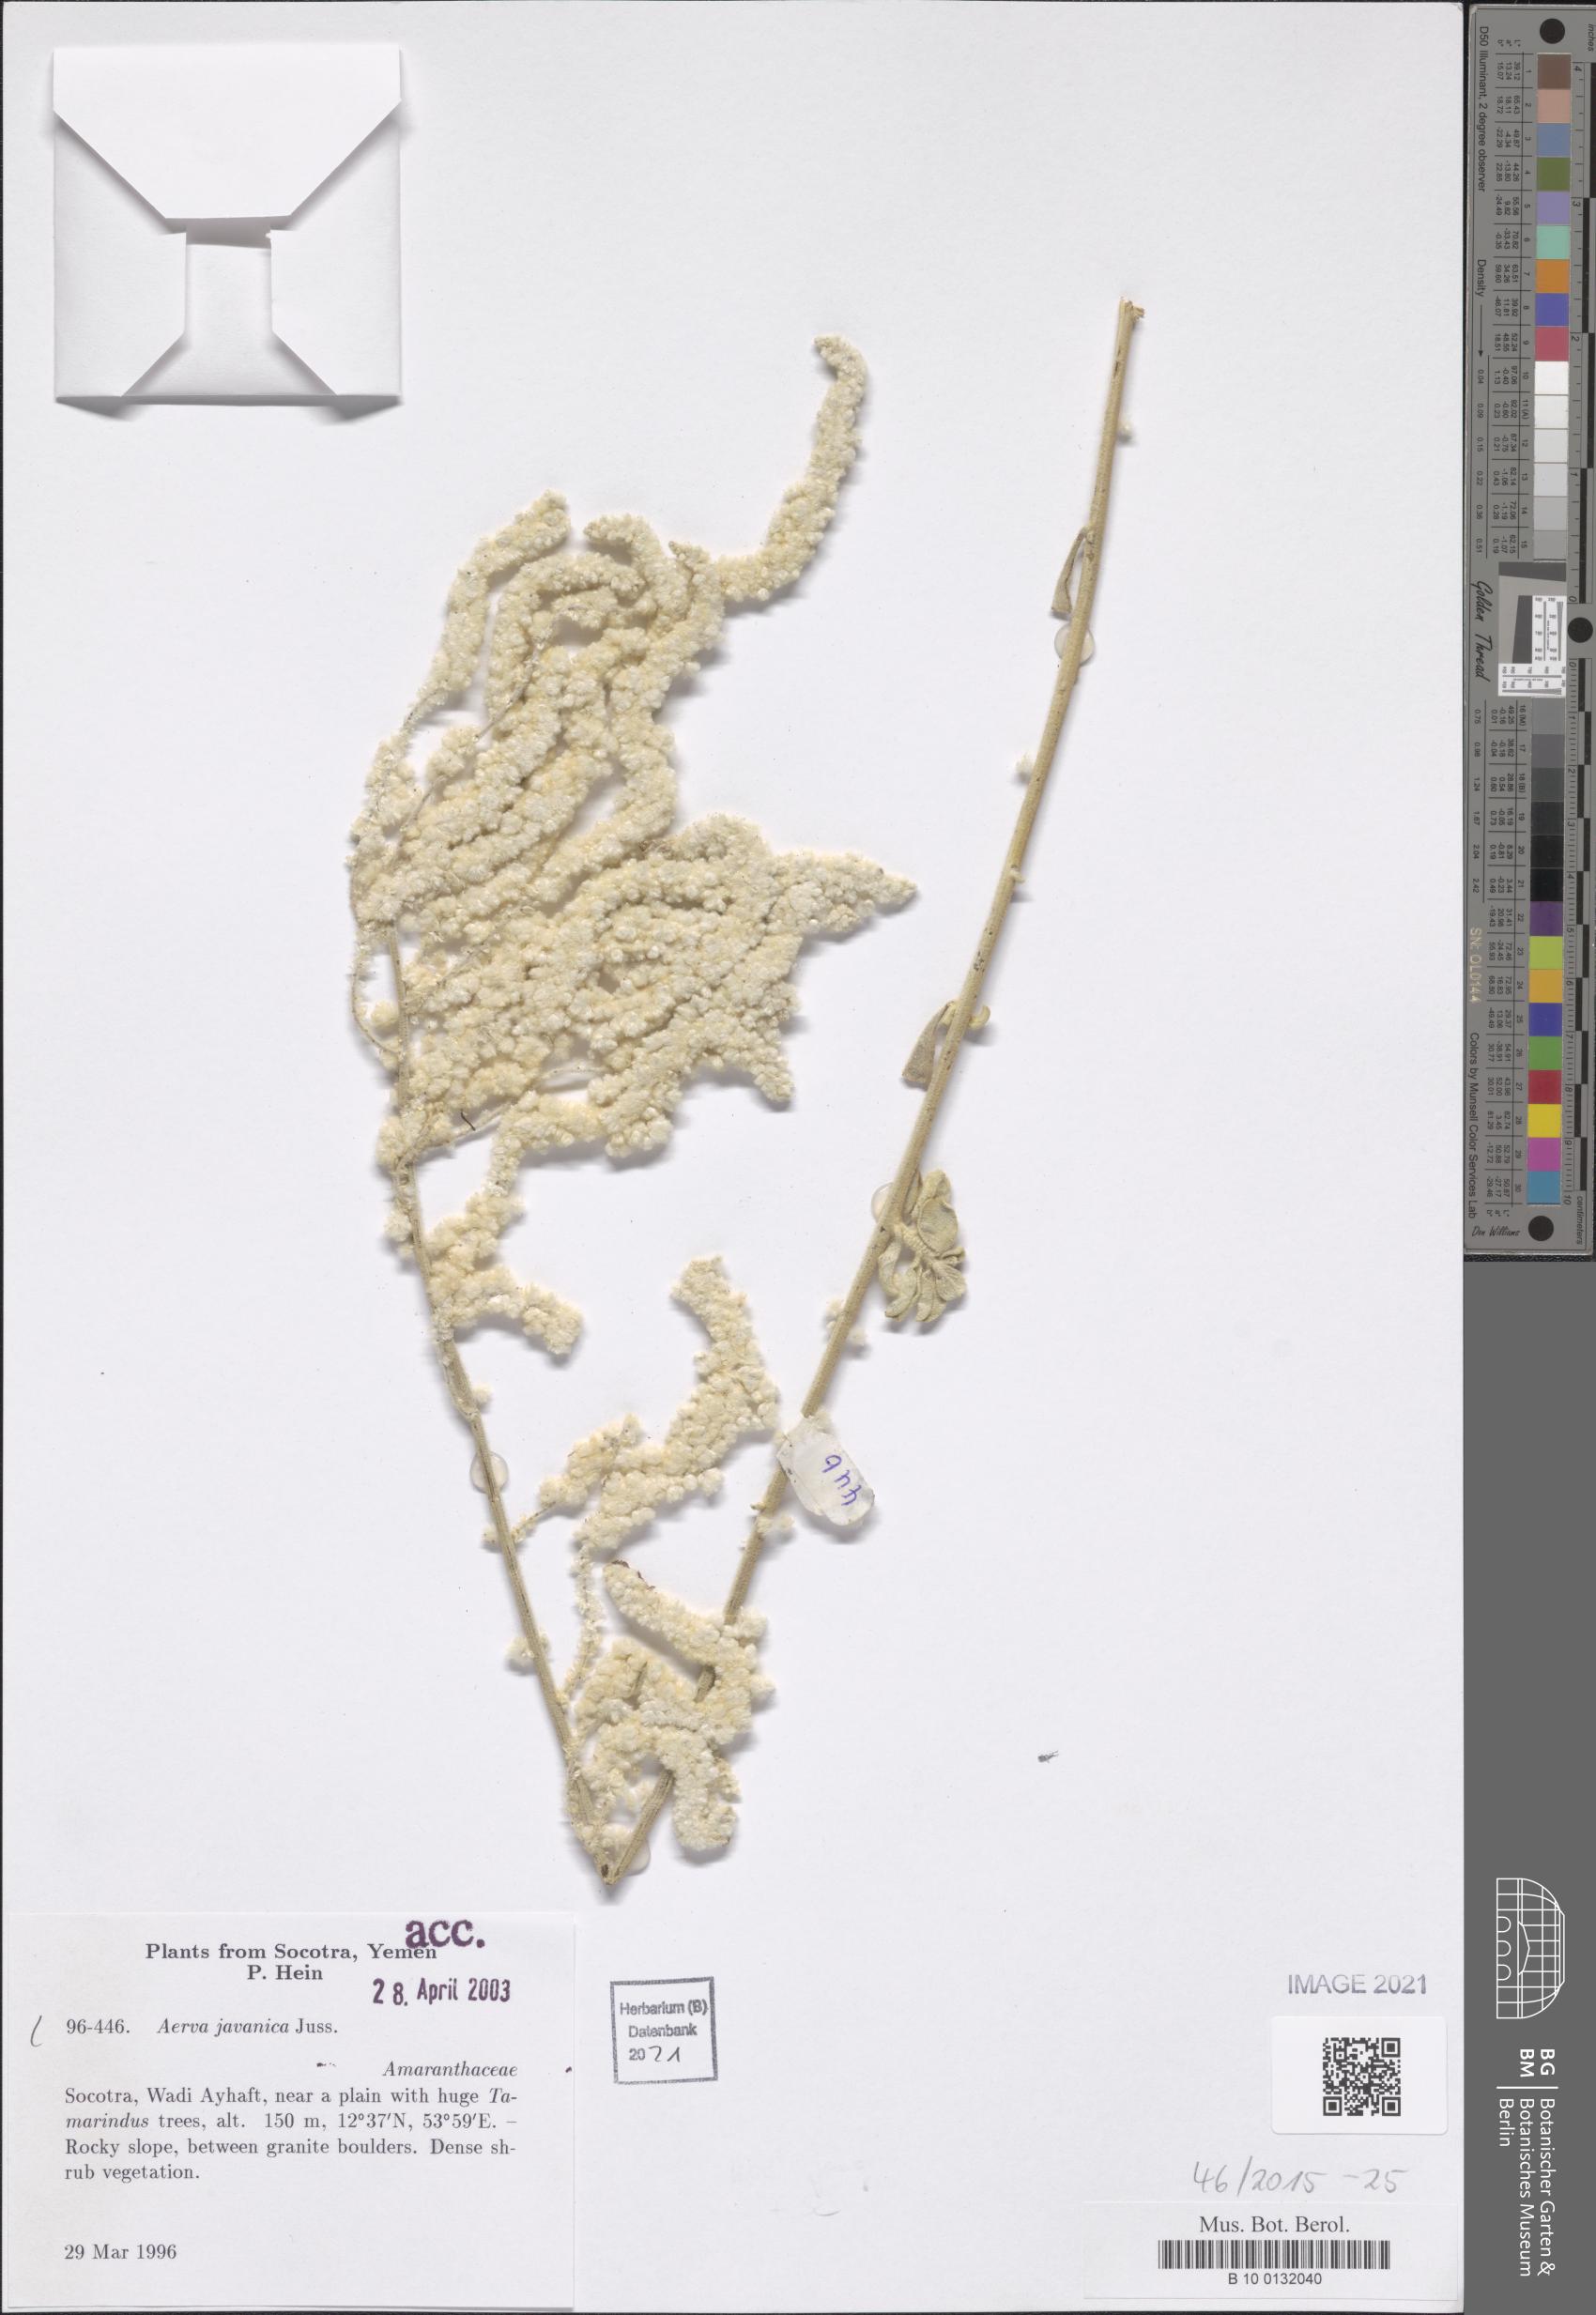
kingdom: Plantae
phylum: Tracheophyta
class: Magnoliopsida
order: Caryophyllales
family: Amaranthaceae
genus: Aerva
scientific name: Aerva javanica
